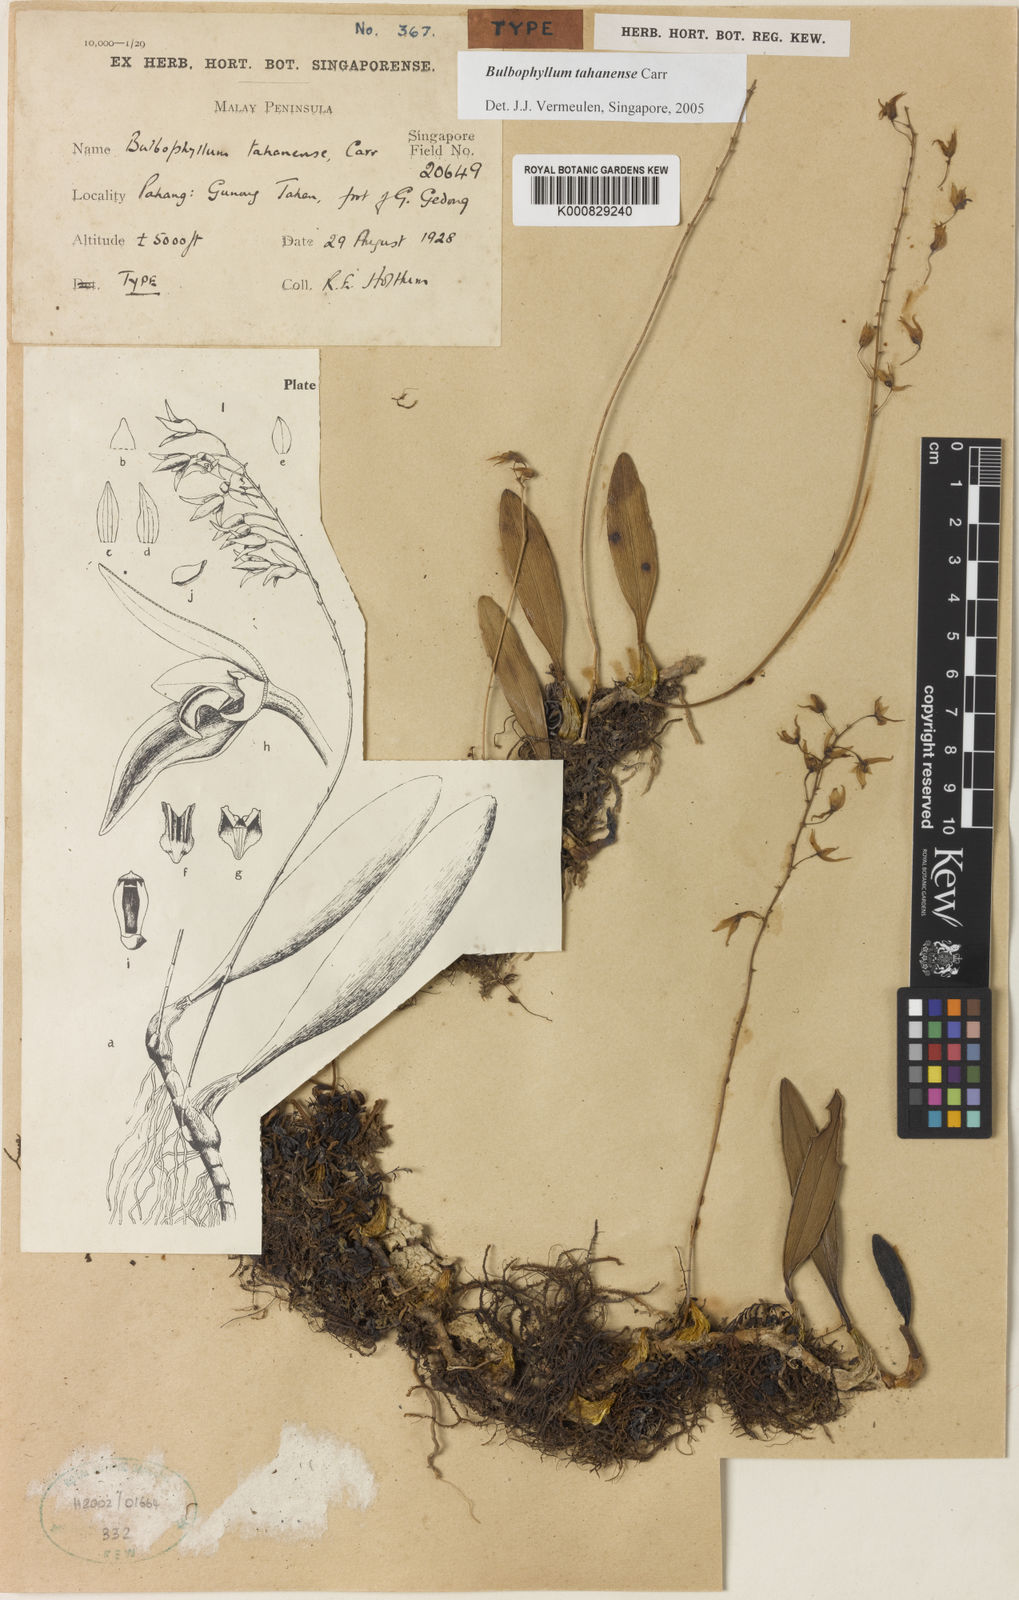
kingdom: Plantae
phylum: Tracheophyta
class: Liliopsida
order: Asparagales
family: Orchidaceae
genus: Bulbophyllum
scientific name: Bulbophyllum tahanense
